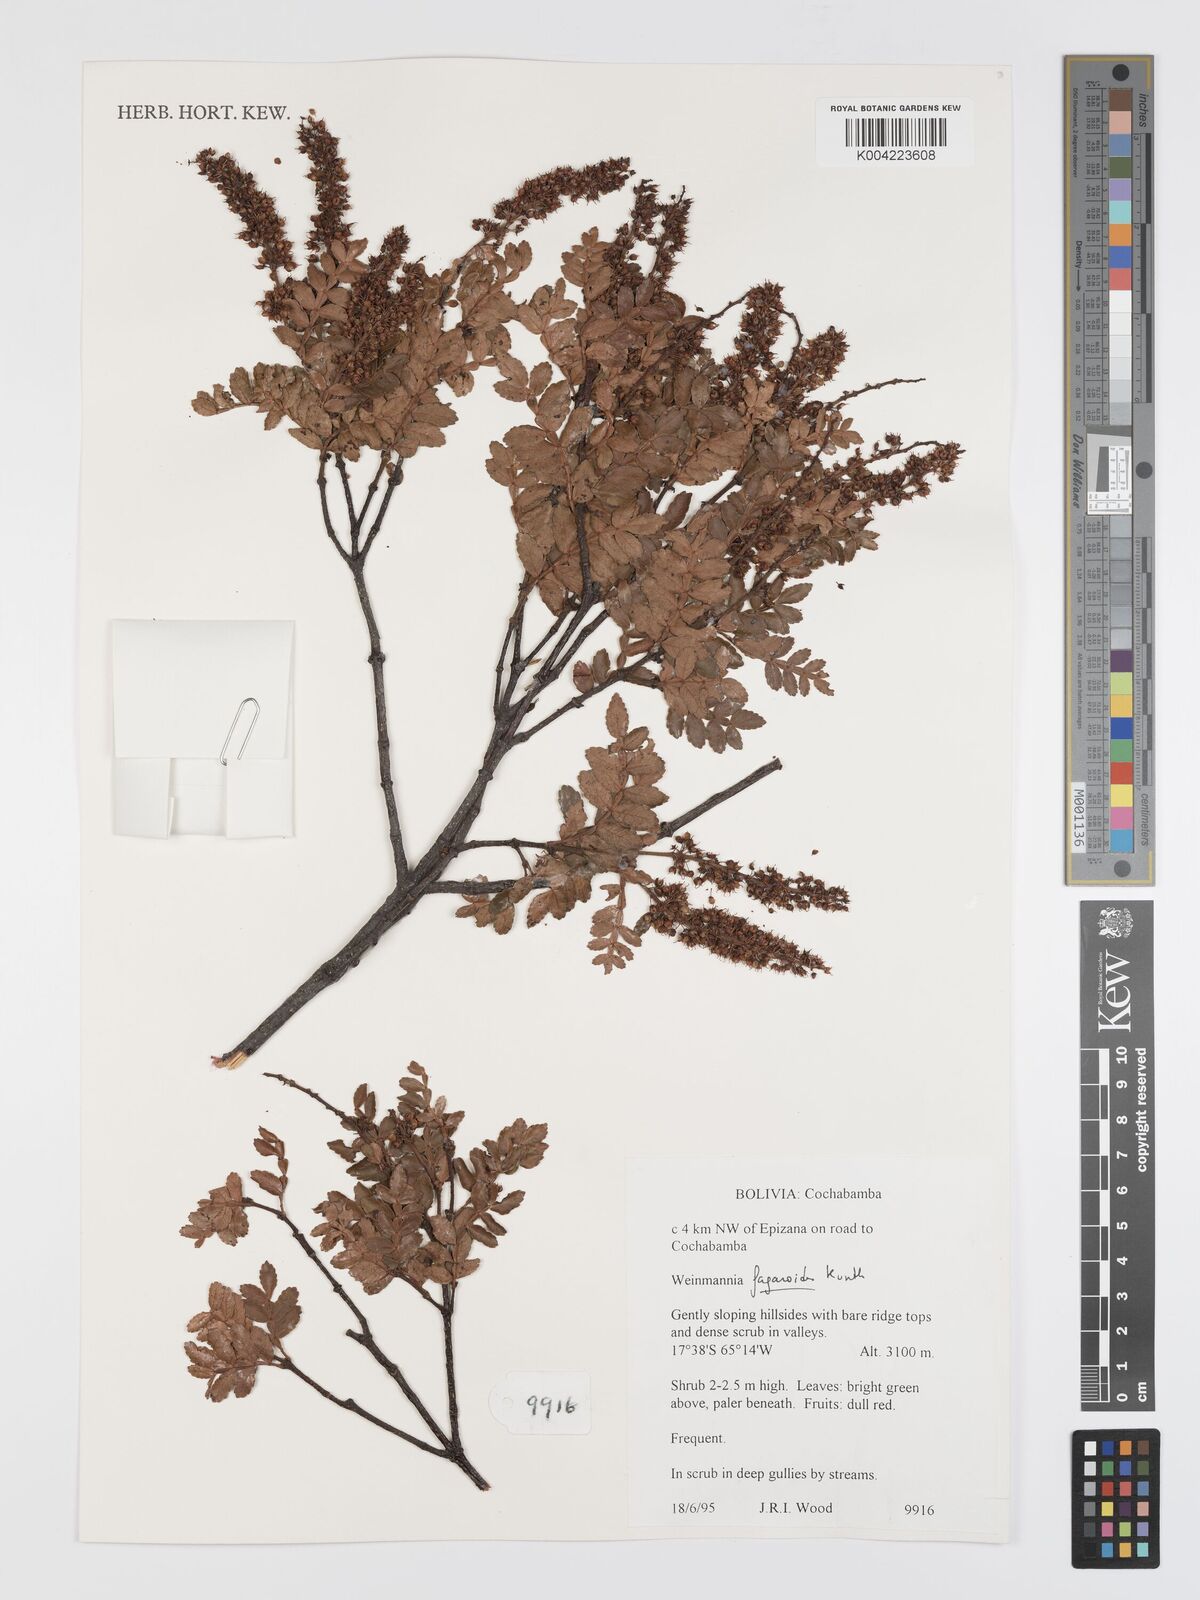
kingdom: Plantae
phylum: Tracheophyta
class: Magnoliopsida
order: Oxalidales
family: Cunoniaceae
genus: Weinmannia
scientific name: Weinmannia fagaroides
